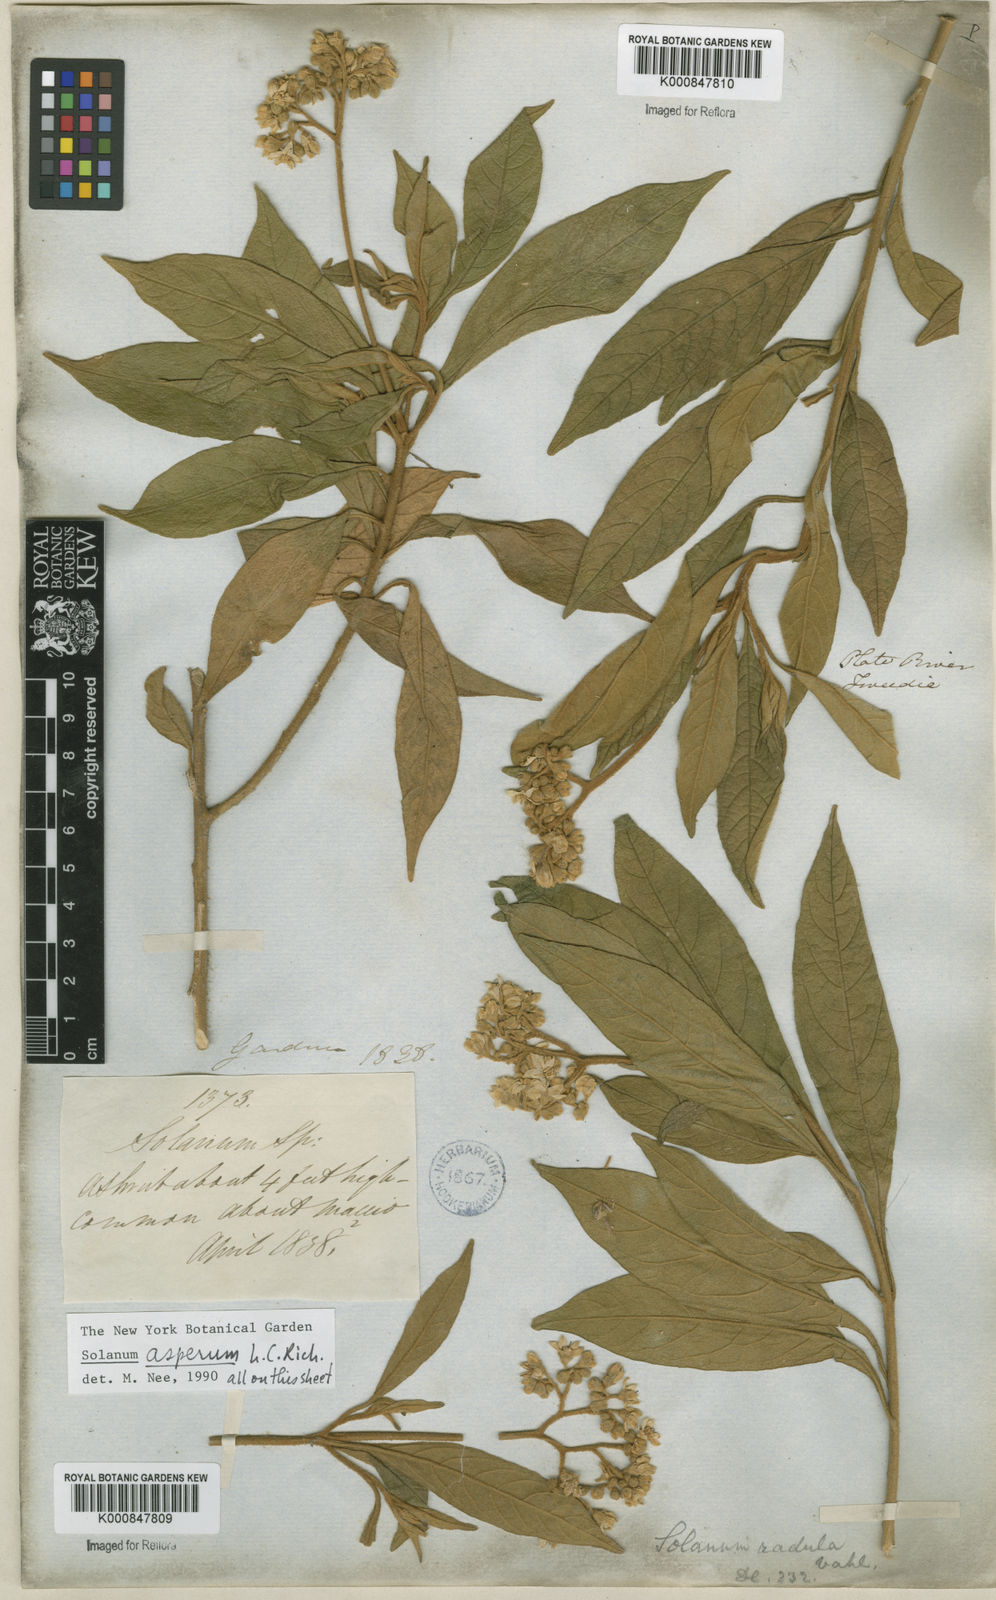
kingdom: Plantae
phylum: Tracheophyta
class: Magnoliopsida
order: Solanales
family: Solanaceae
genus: Solanum
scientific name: Solanum asperum
